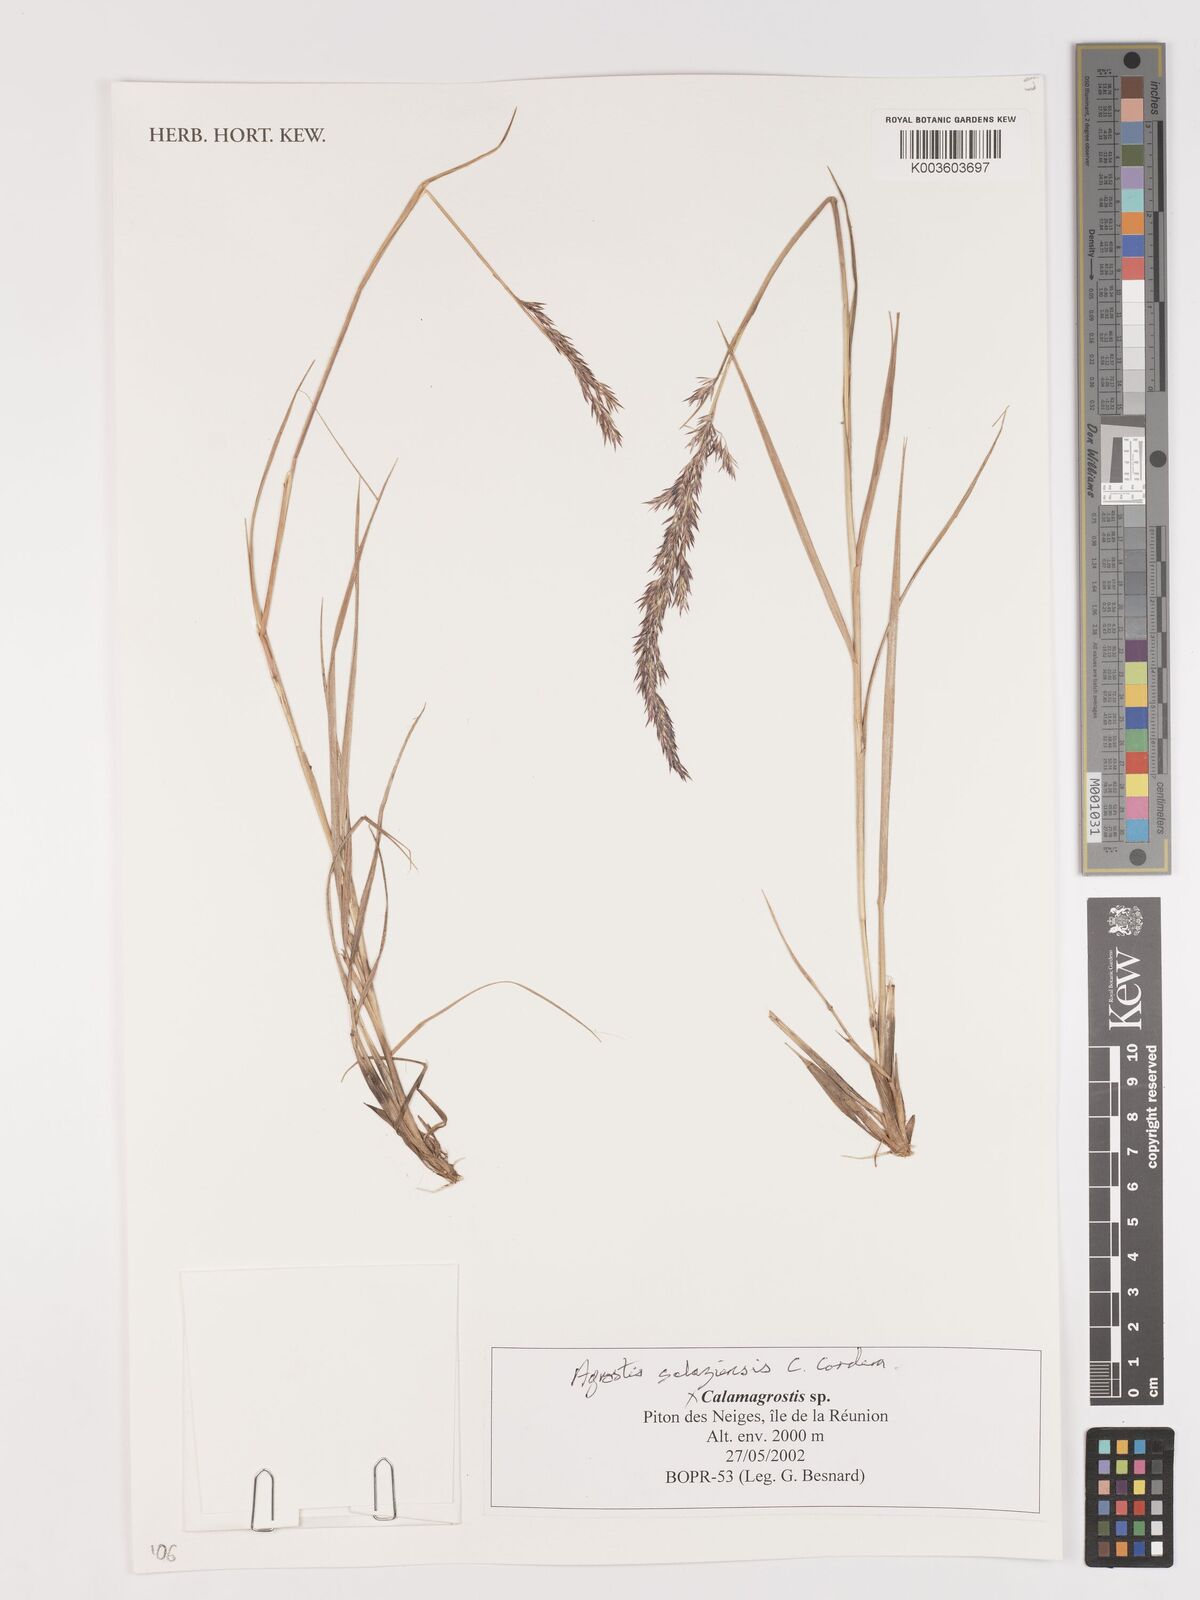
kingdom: Plantae
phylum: Tracheophyta
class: Liliopsida
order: Poales
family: Poaceae
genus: Agrostis
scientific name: Agrostis salaziensis
